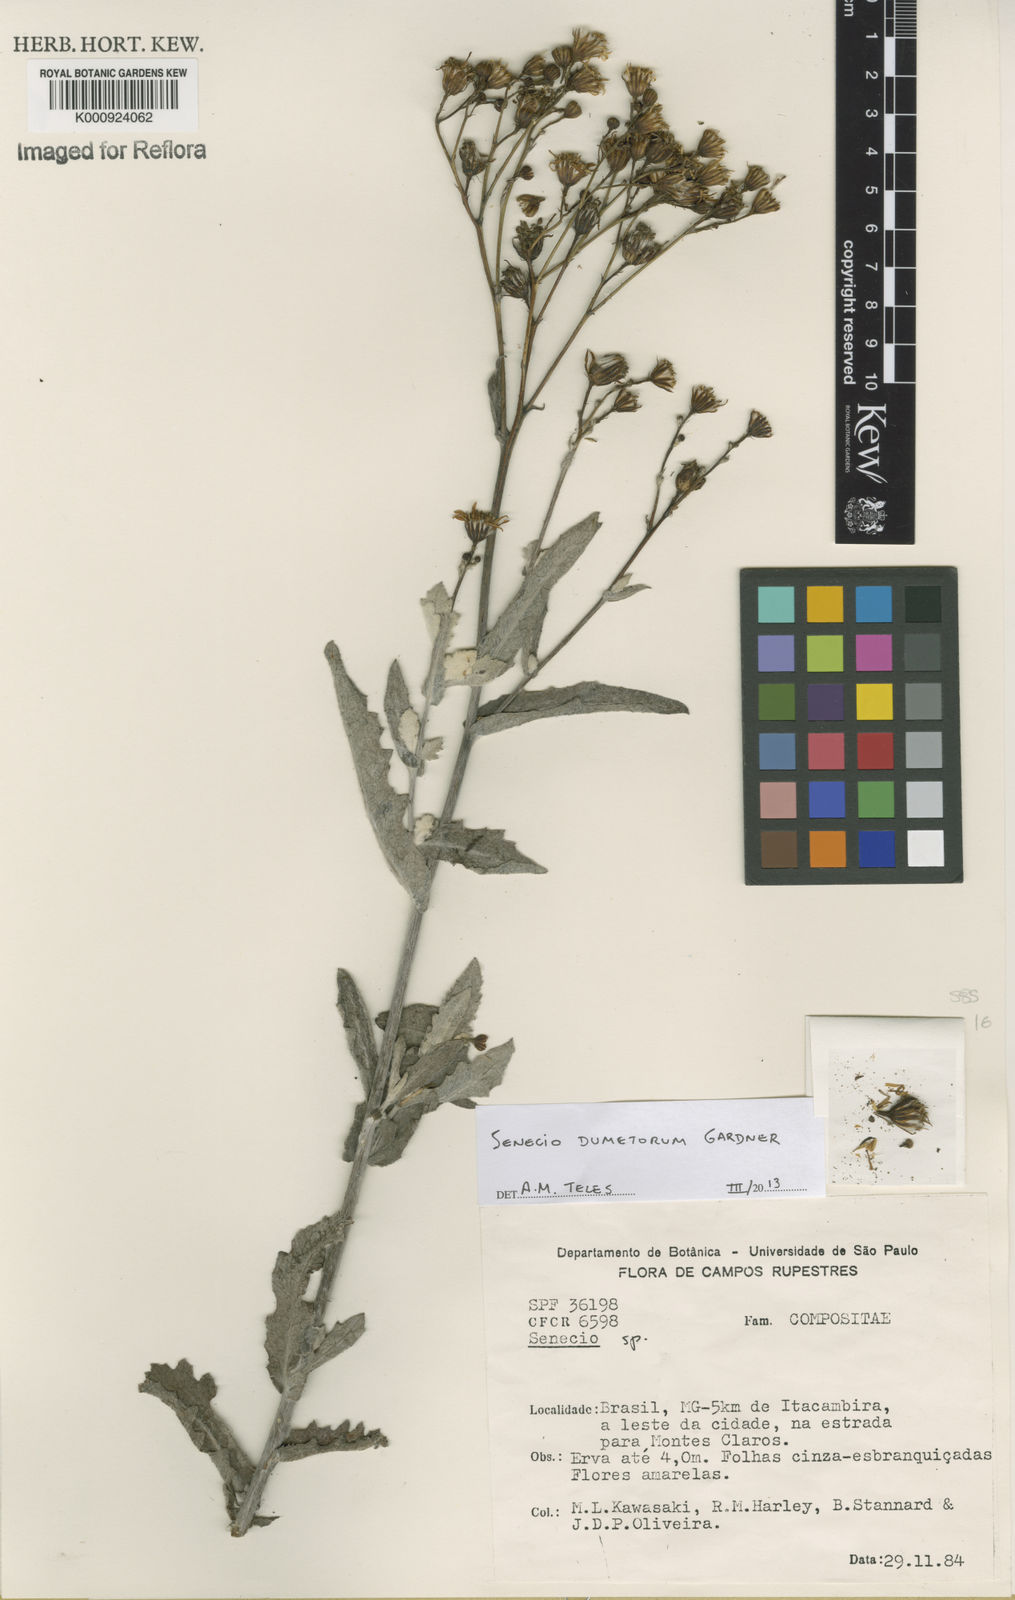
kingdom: Plantae
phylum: Tracheophyta
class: Magnoliopsida
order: Asterales
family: Asteraceae
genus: Senecio
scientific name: Senecio dumetorum
